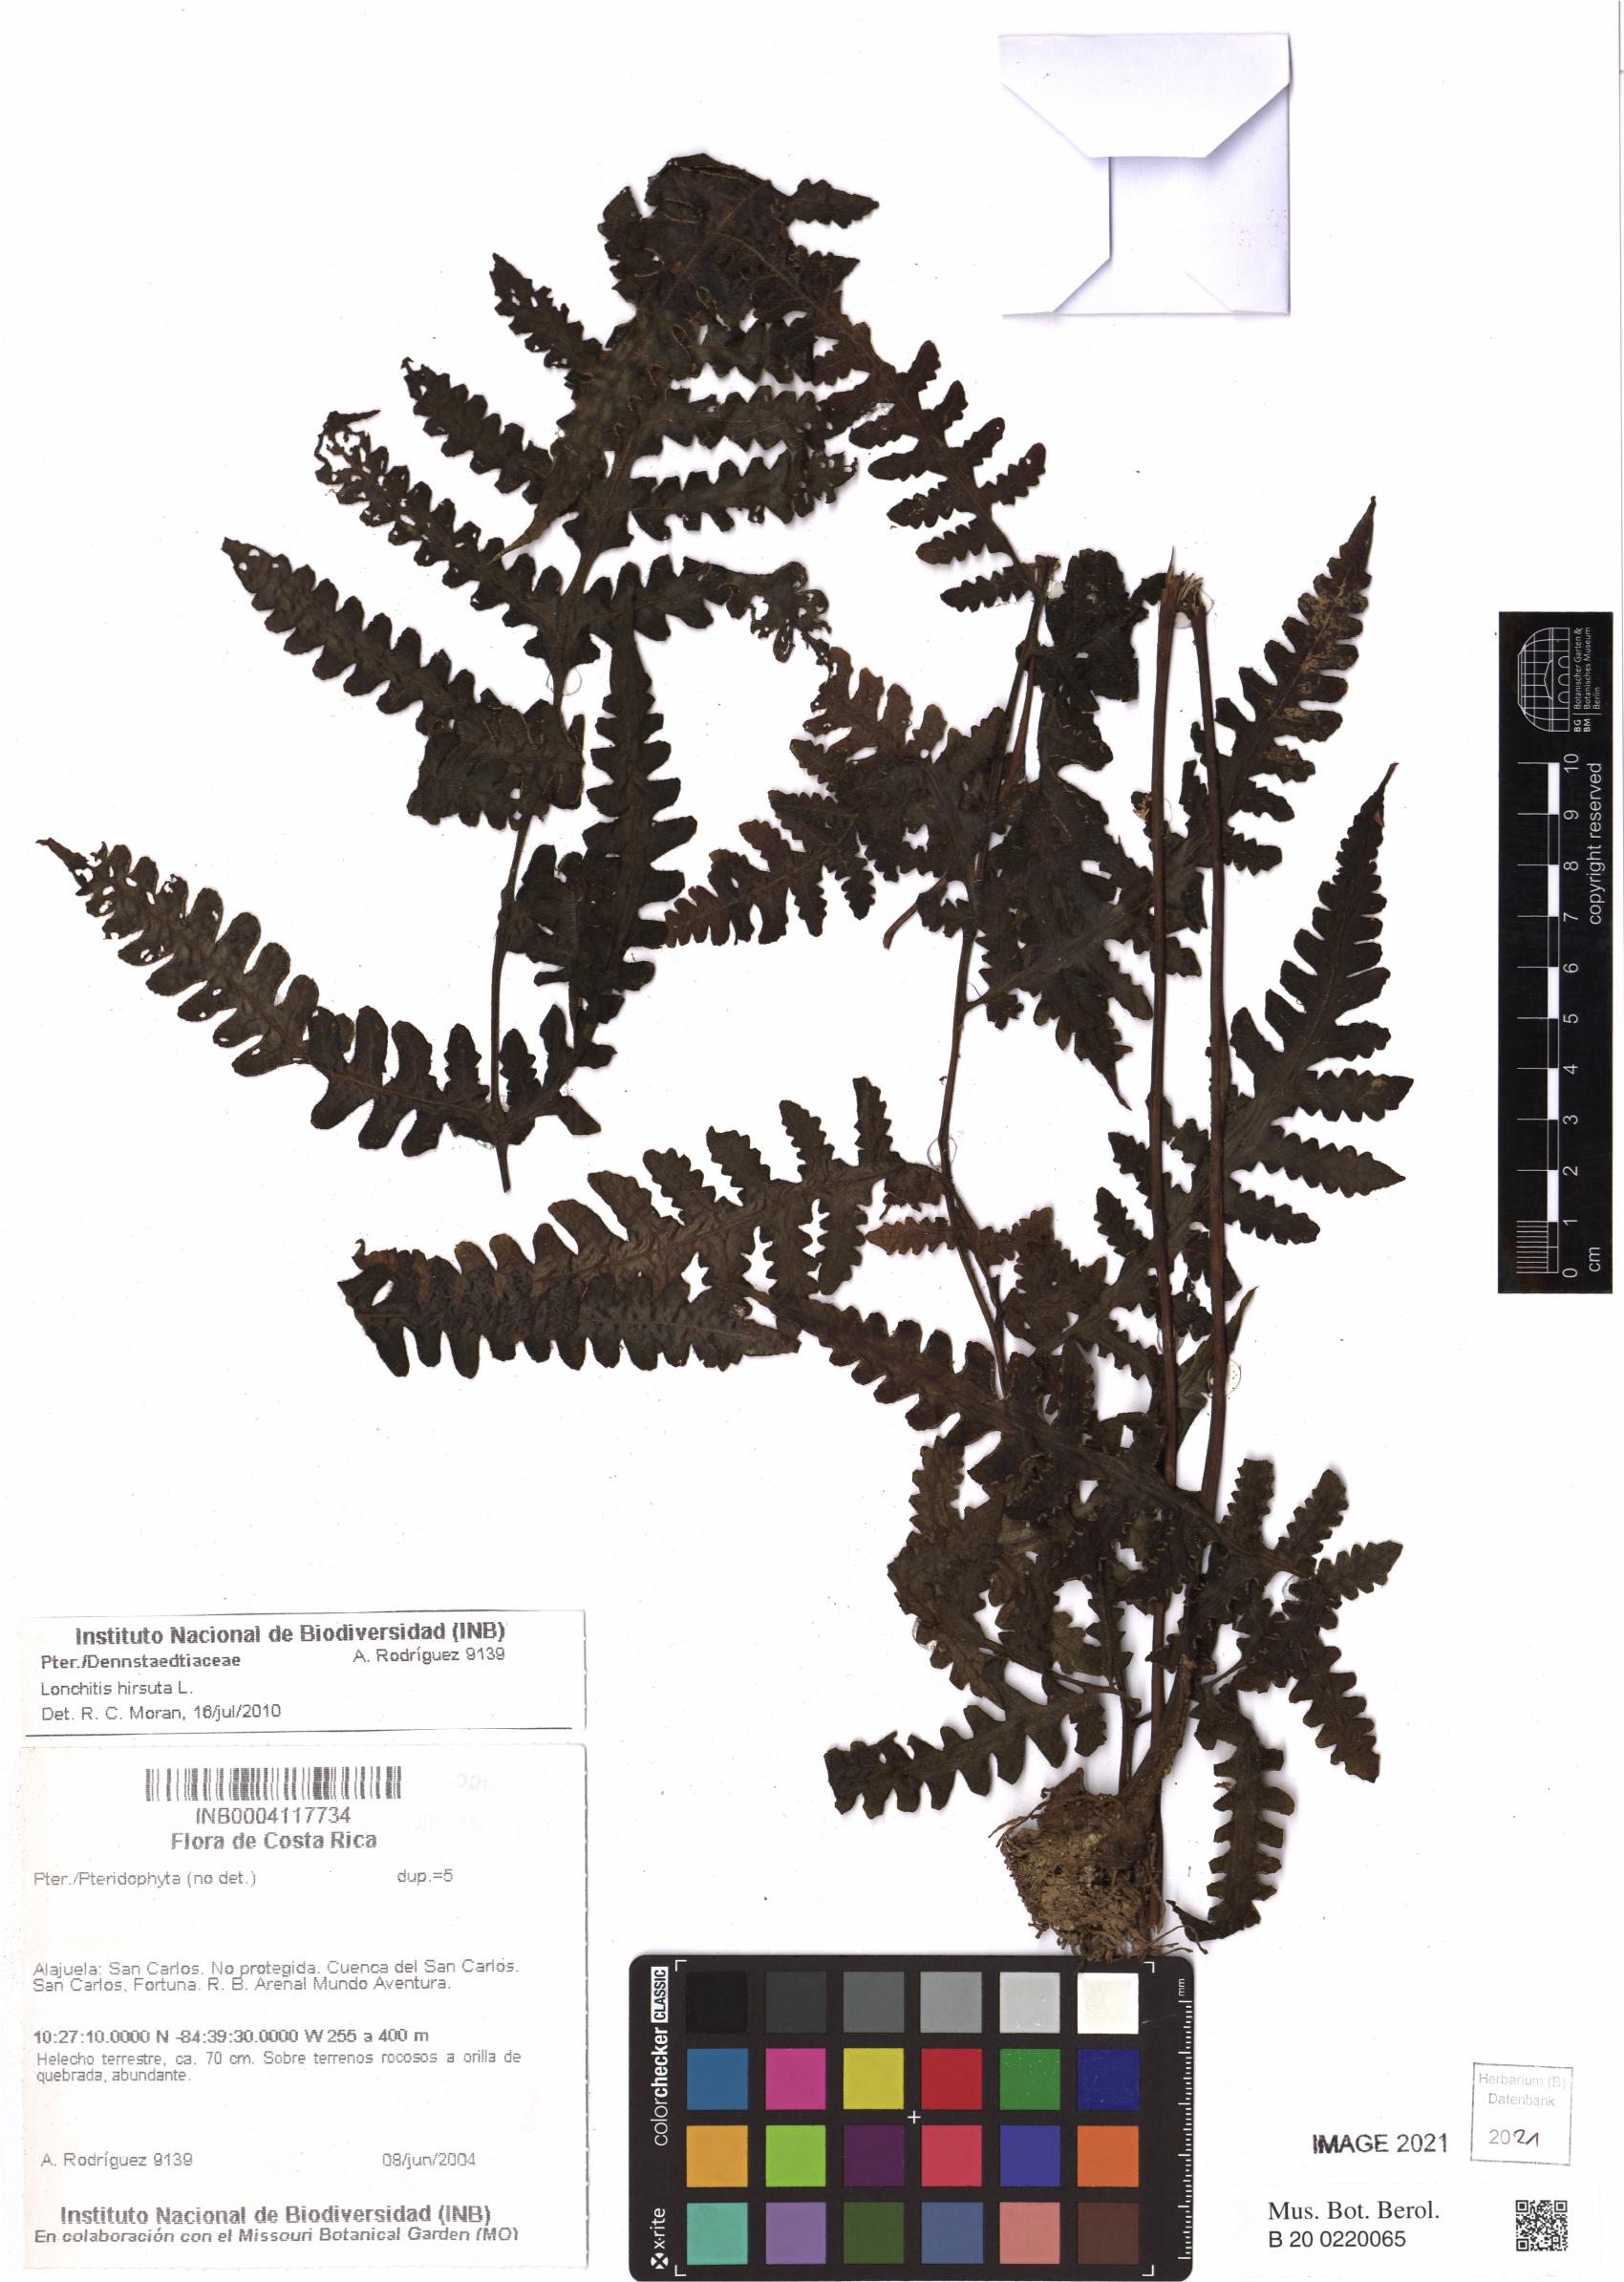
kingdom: Plantae
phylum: Tracheophyta
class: Polypodiopsida
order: Polypodiales
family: Lonchitidaceae
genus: Lonchitis
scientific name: Lonchitis hirsuta
